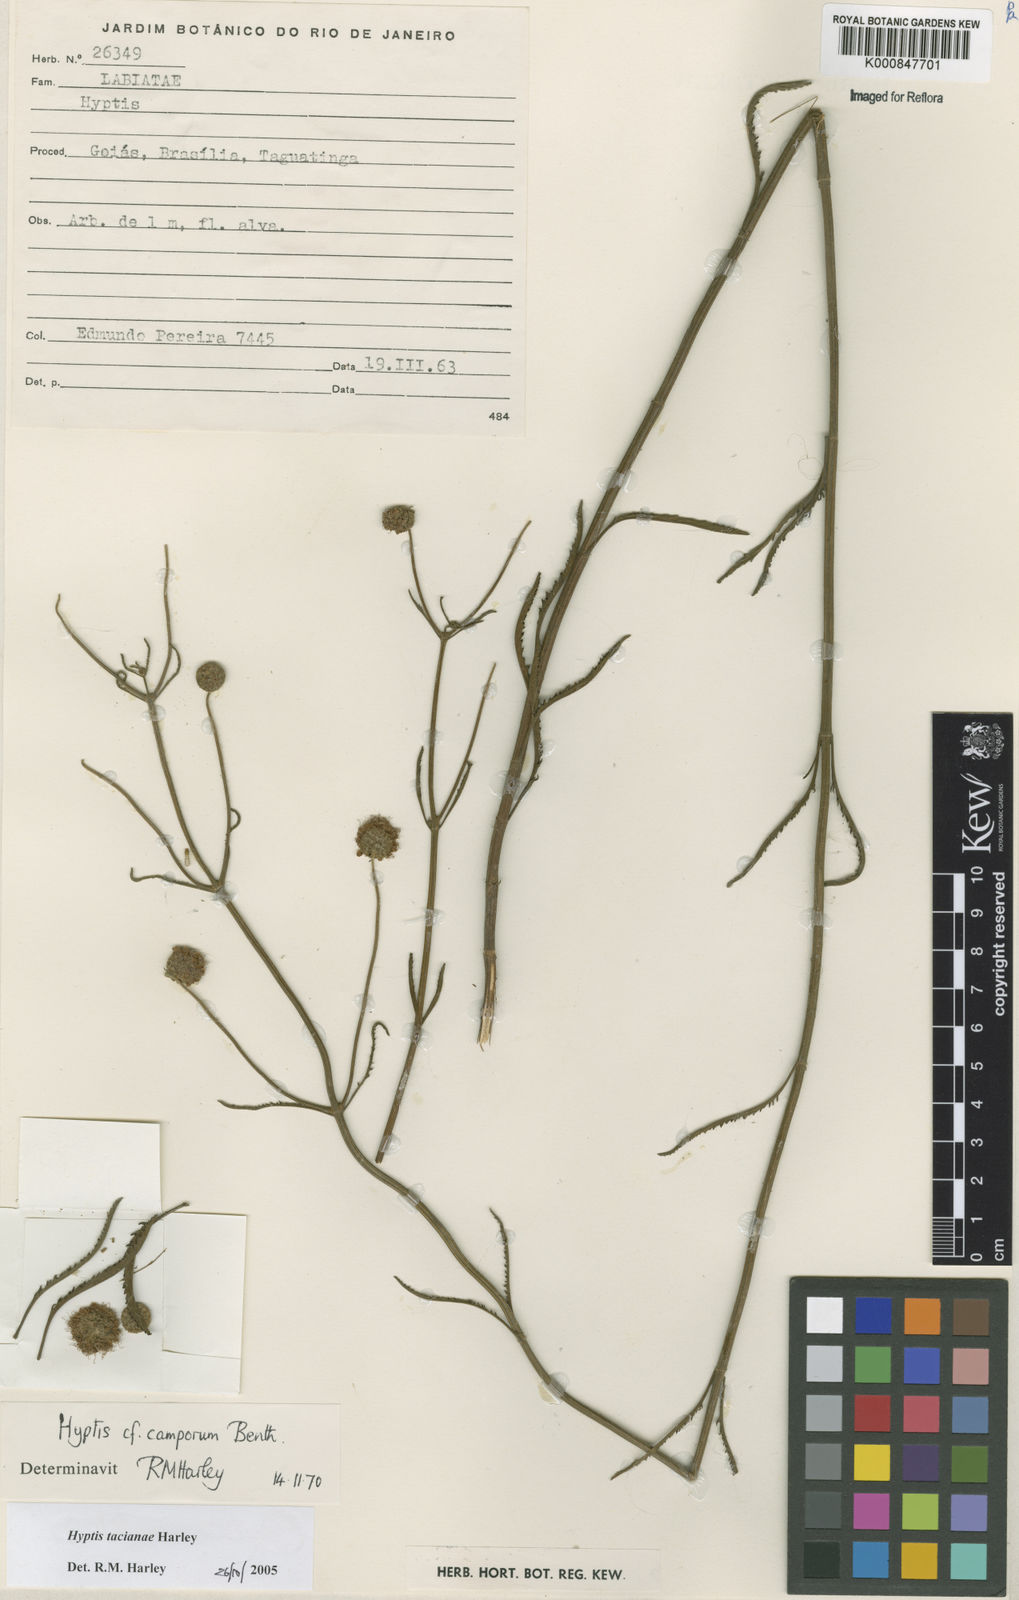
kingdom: Plantae
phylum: Tracheophyta
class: Magnoliopsida
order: Lamiales
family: Lamiaceae
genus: Cyanocephalus
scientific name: Cyanocephalus tacianae
